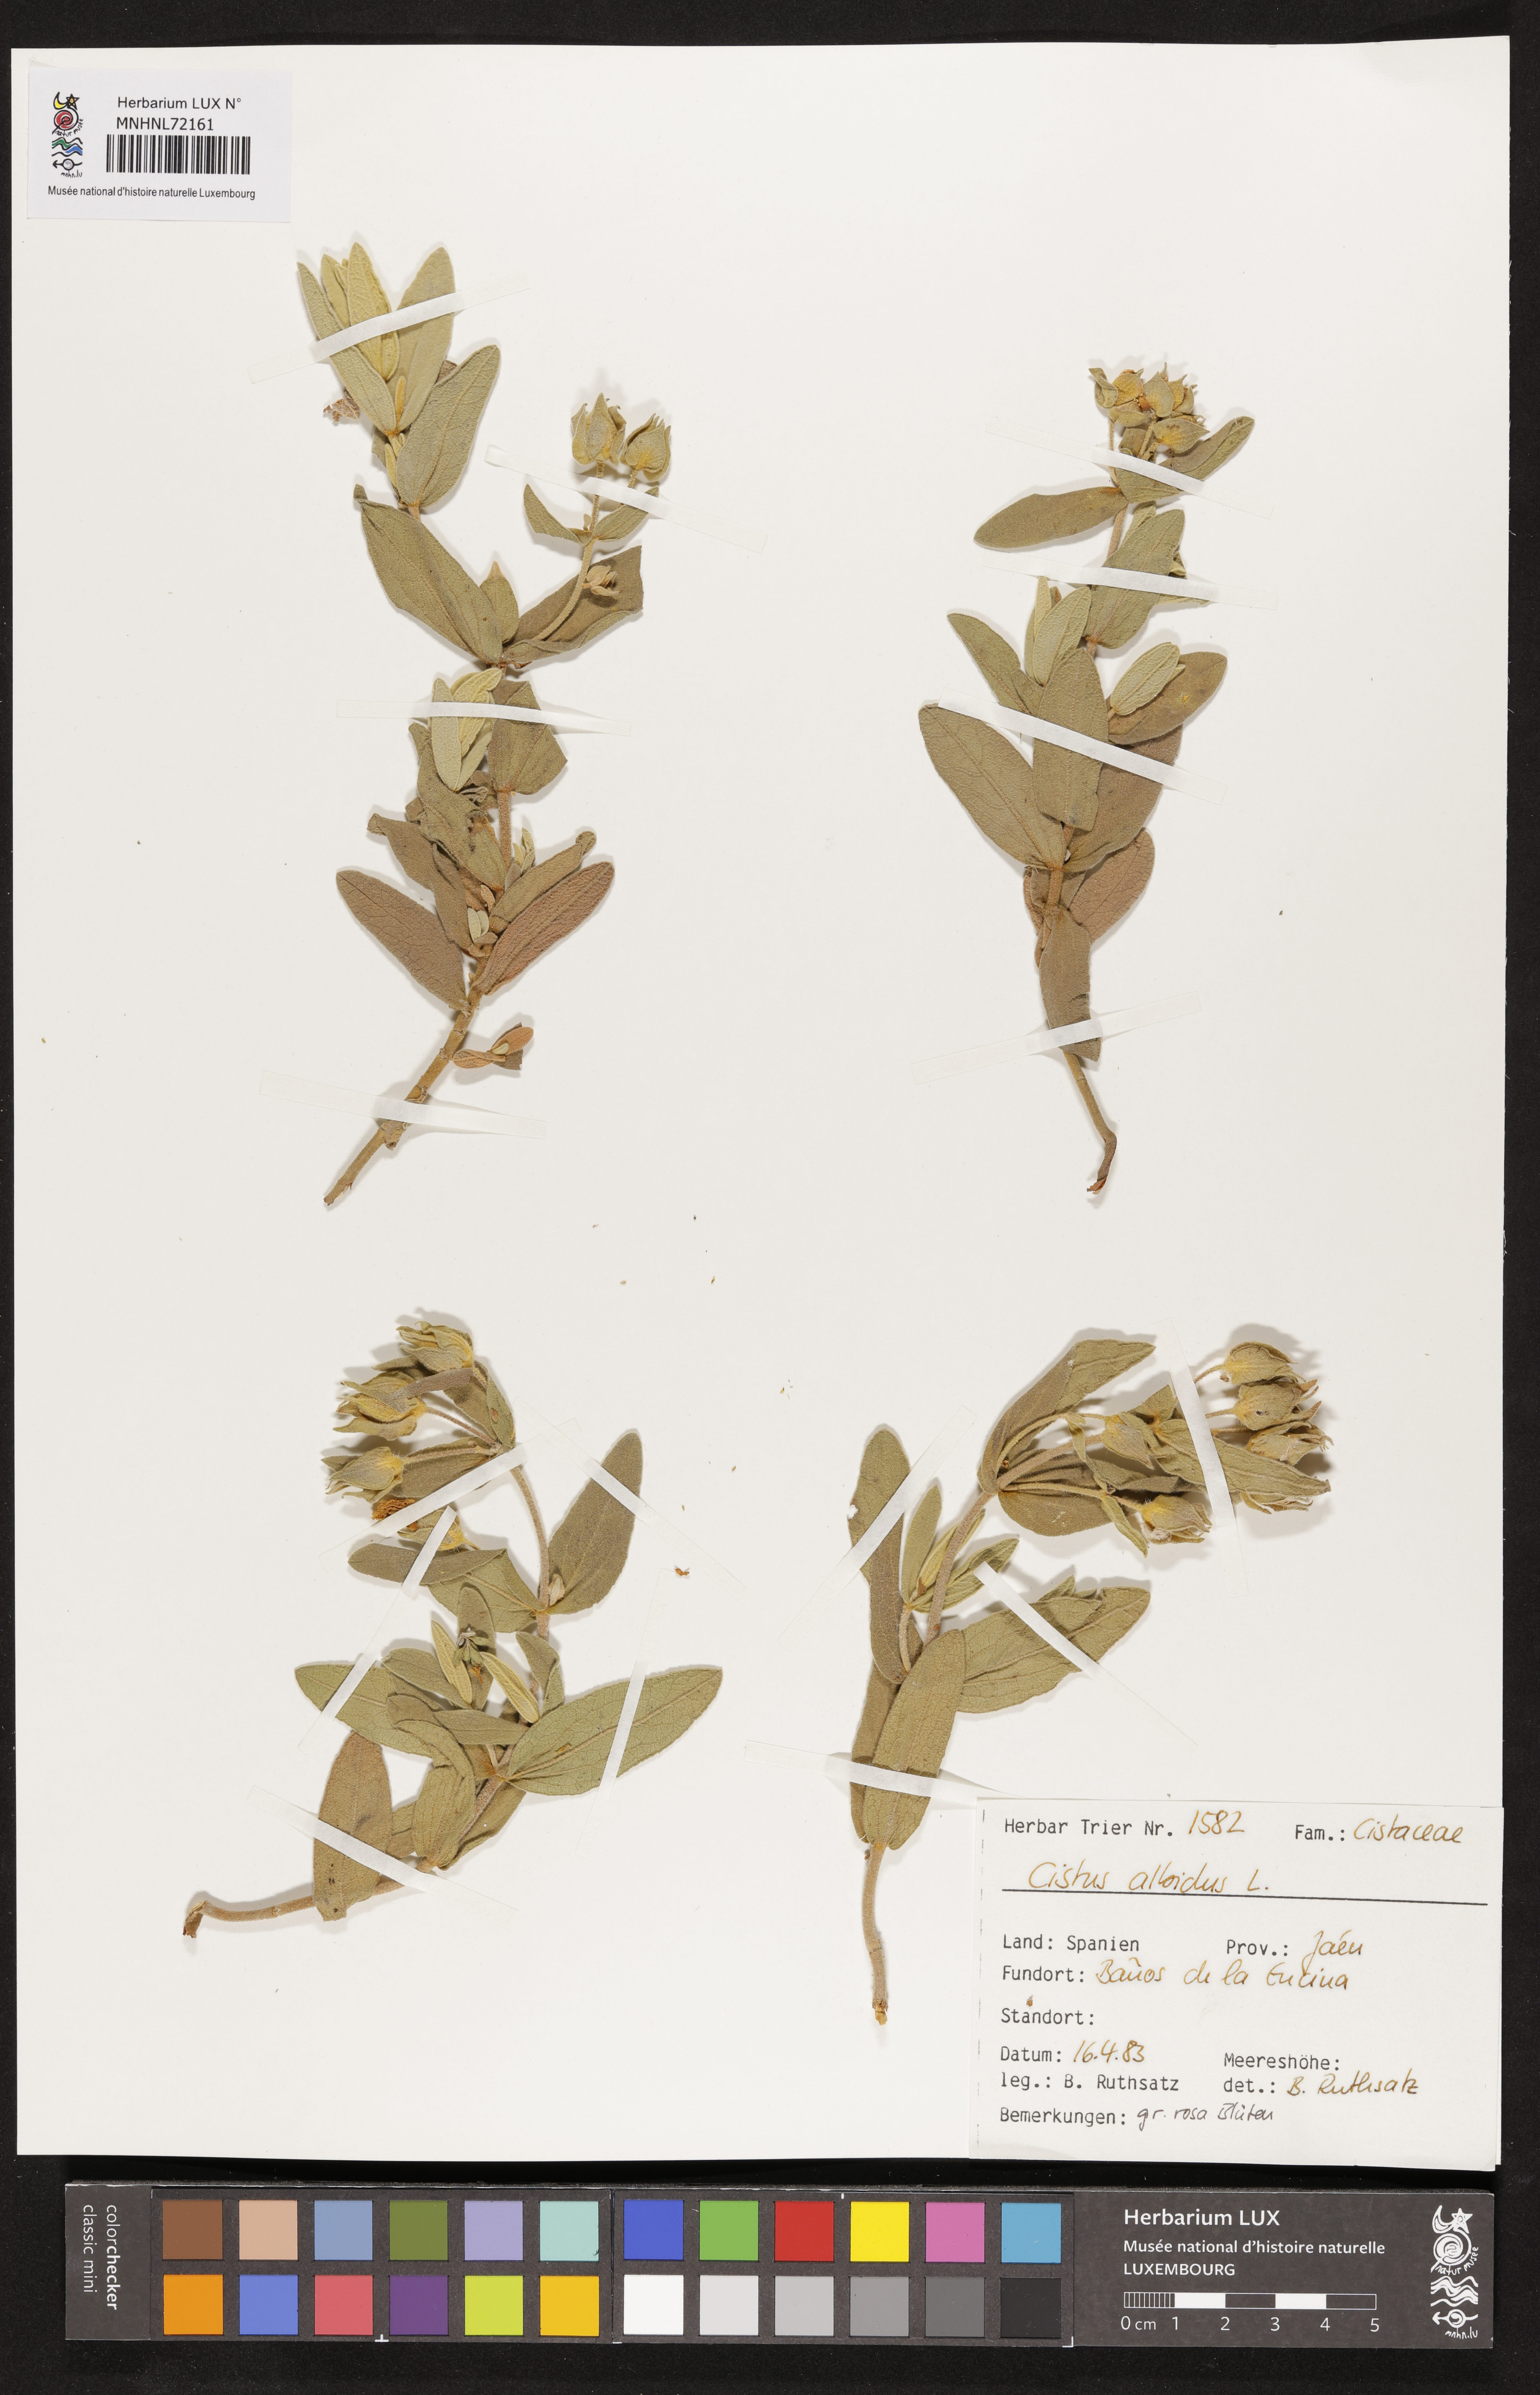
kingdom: Plantae
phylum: Tracheophyta
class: Magnoliopsida
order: Malvales
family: Cistaceae
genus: Cistus
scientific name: Cistus albidus
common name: White-leaf rock-rose
